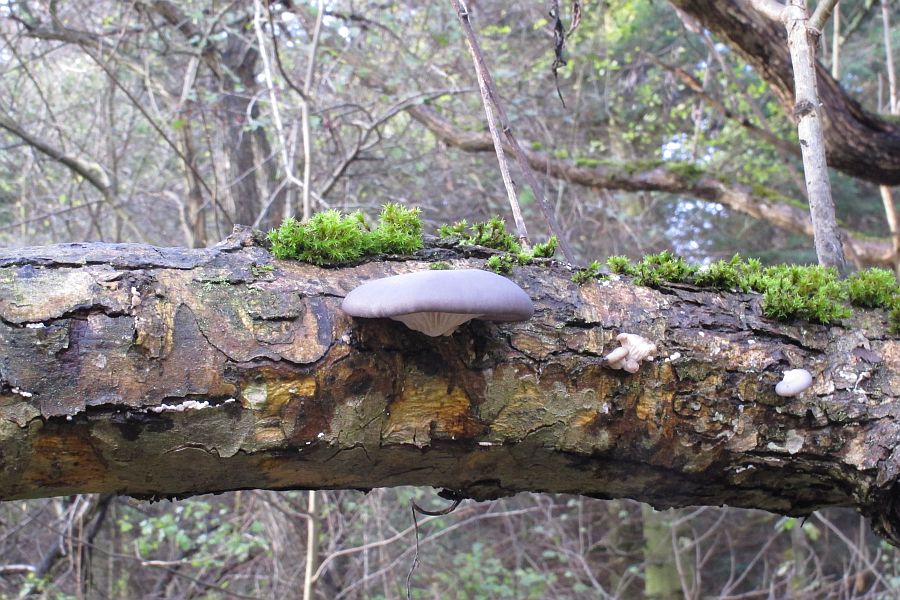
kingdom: Fungi
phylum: Basidiomycota
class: Agaricomycetes
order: Agaricales
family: Pleurotaceae
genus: Pleurotus
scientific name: Pleurotus ostreatus
